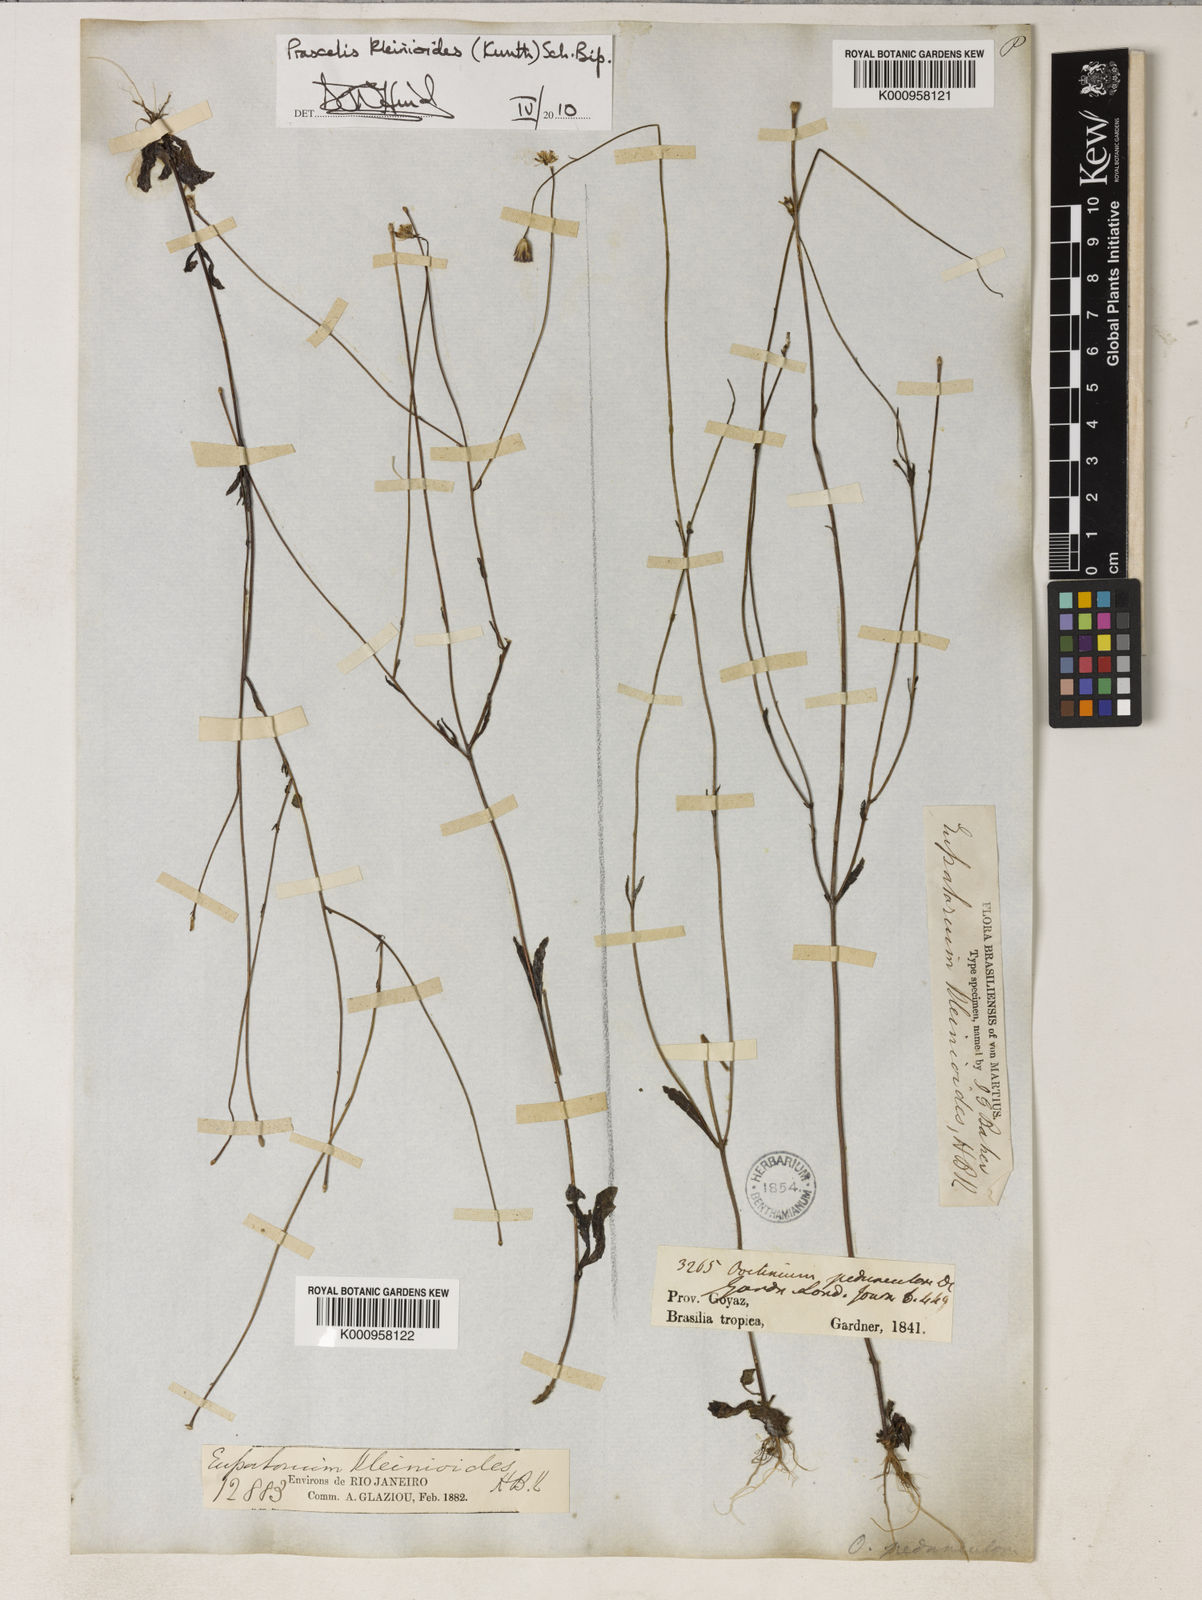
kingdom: Plantae
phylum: Tracheophyta
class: Magnoliopsida
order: Asterales
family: Asteraceae
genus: Praxelis
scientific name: Praxelis kleinioides
